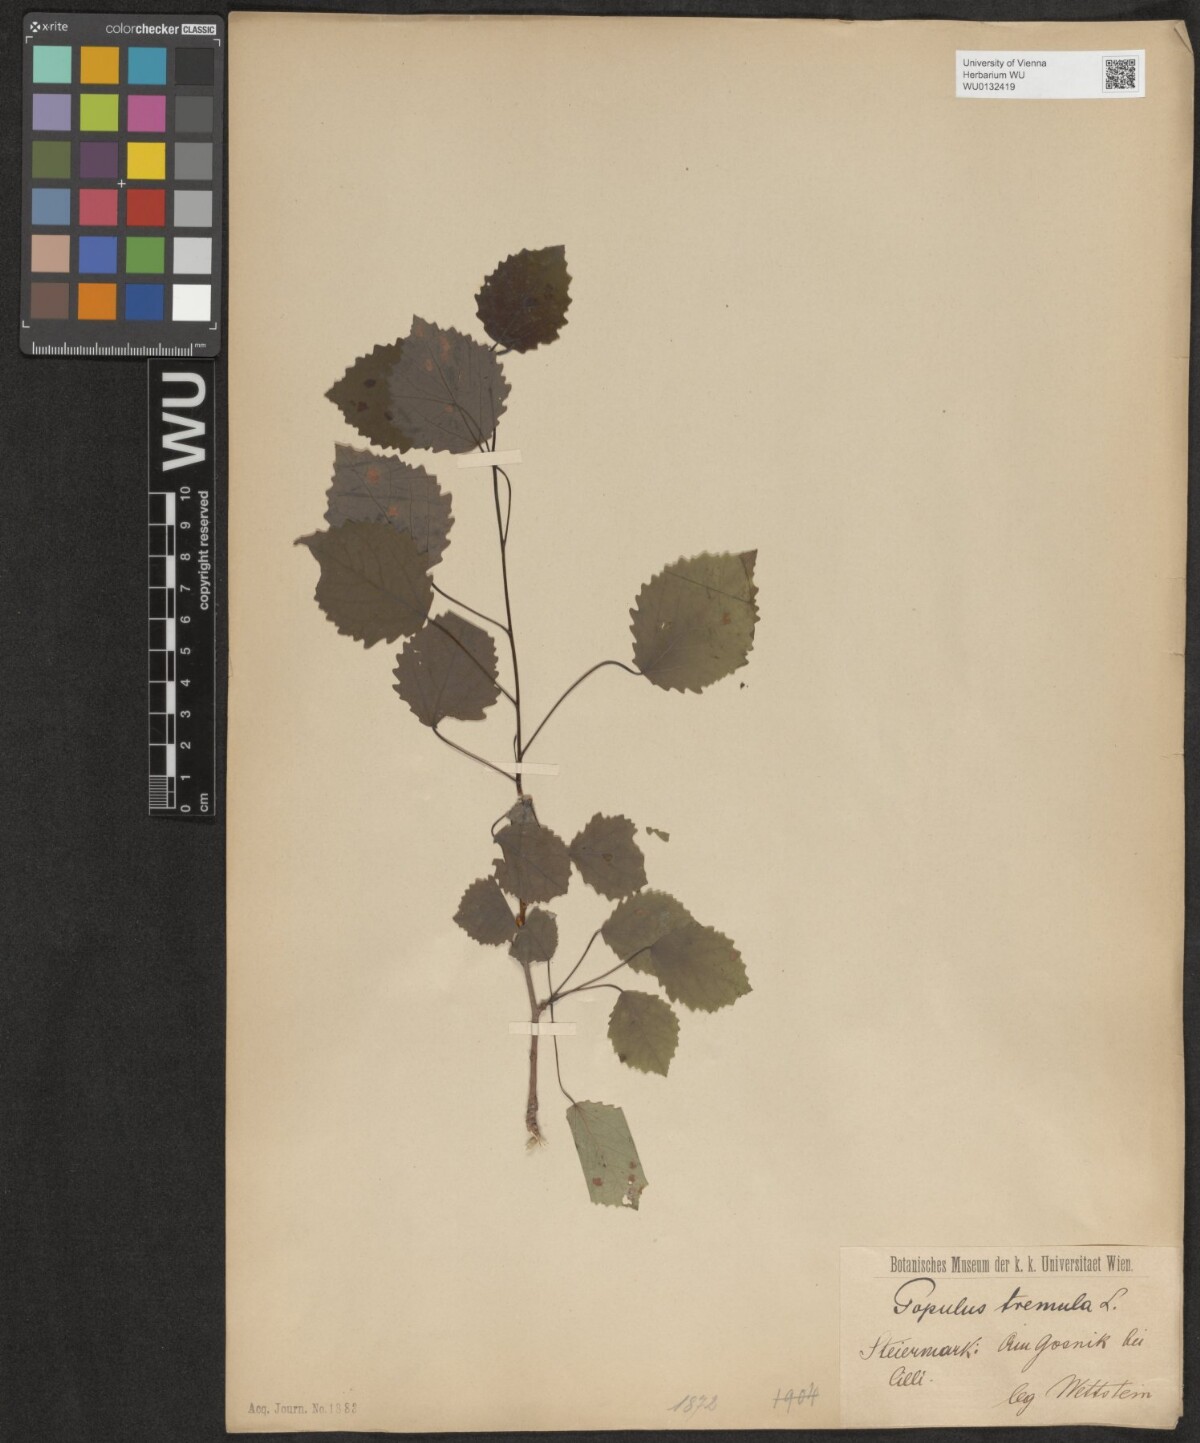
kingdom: Plantae
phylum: Tracheophyta
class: Magnoliopsida
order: Malpighiales
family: Salicaceae
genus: Populus
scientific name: Populus tremula
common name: European aspen
